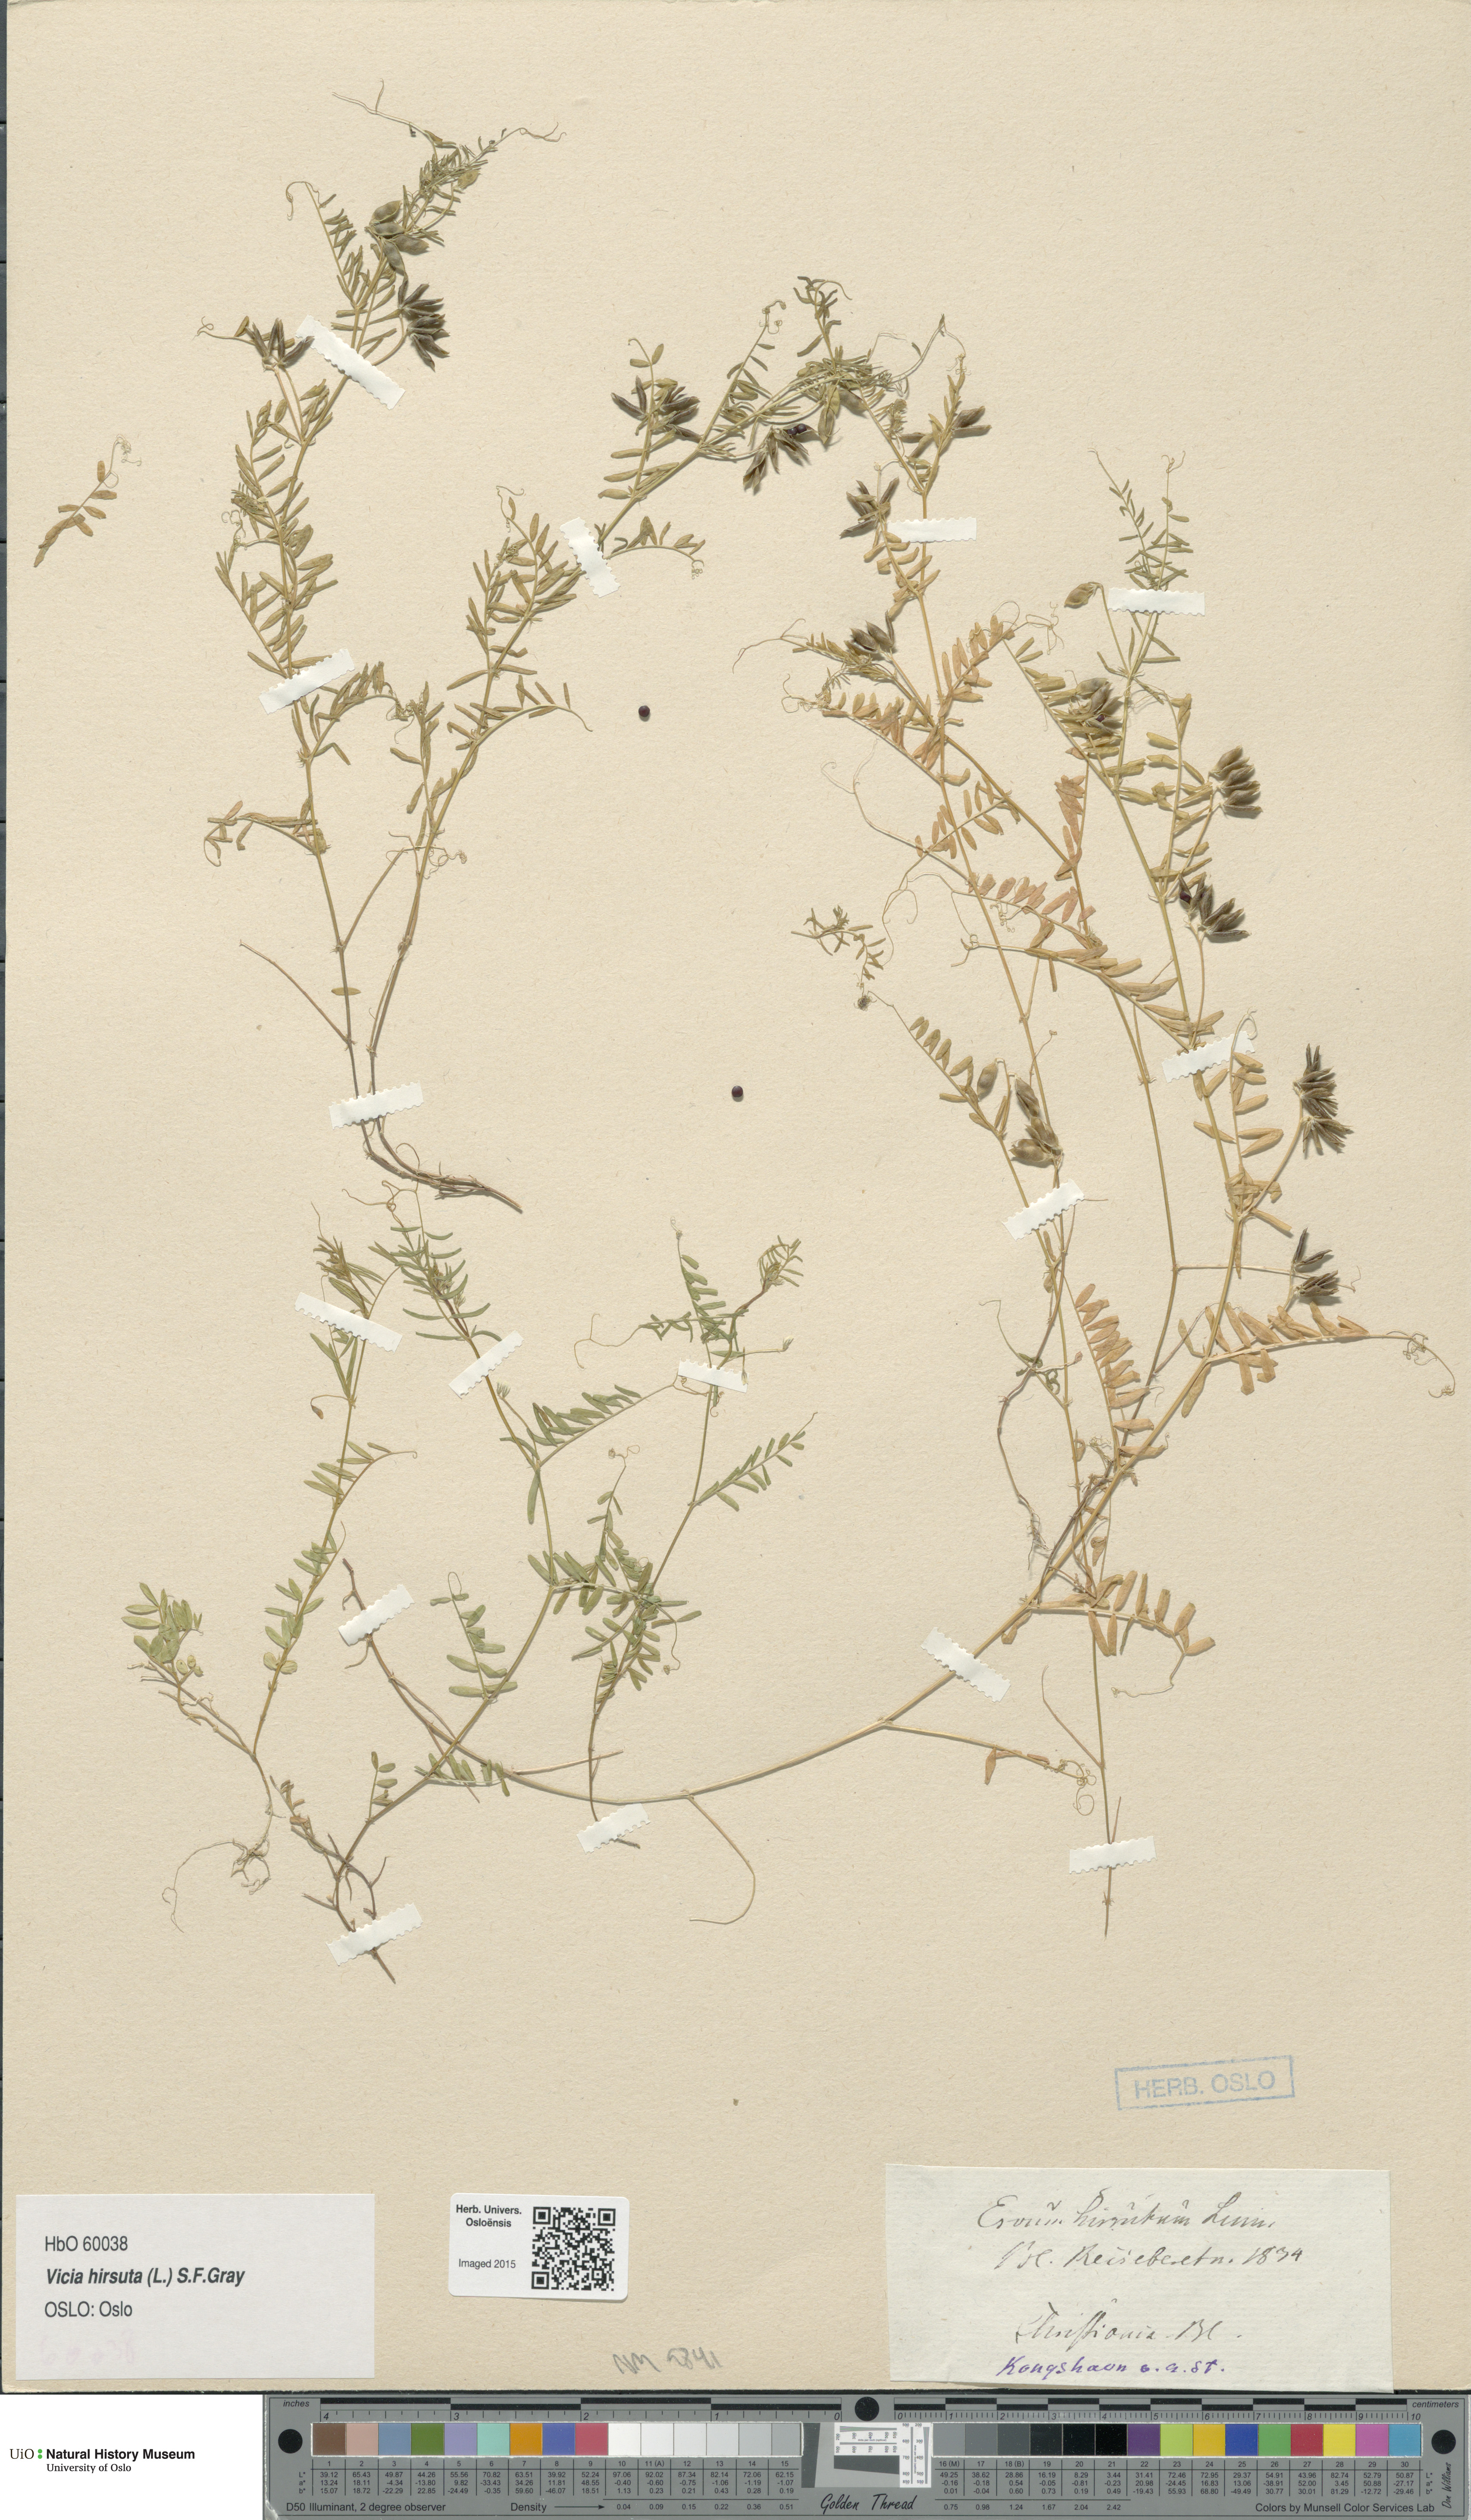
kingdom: Plantae
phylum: Tracheophyta
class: Magnoliopsida
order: Fabales
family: Fabaceae
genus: Vicia
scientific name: Vicia hirsuta
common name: Tiny vetch
